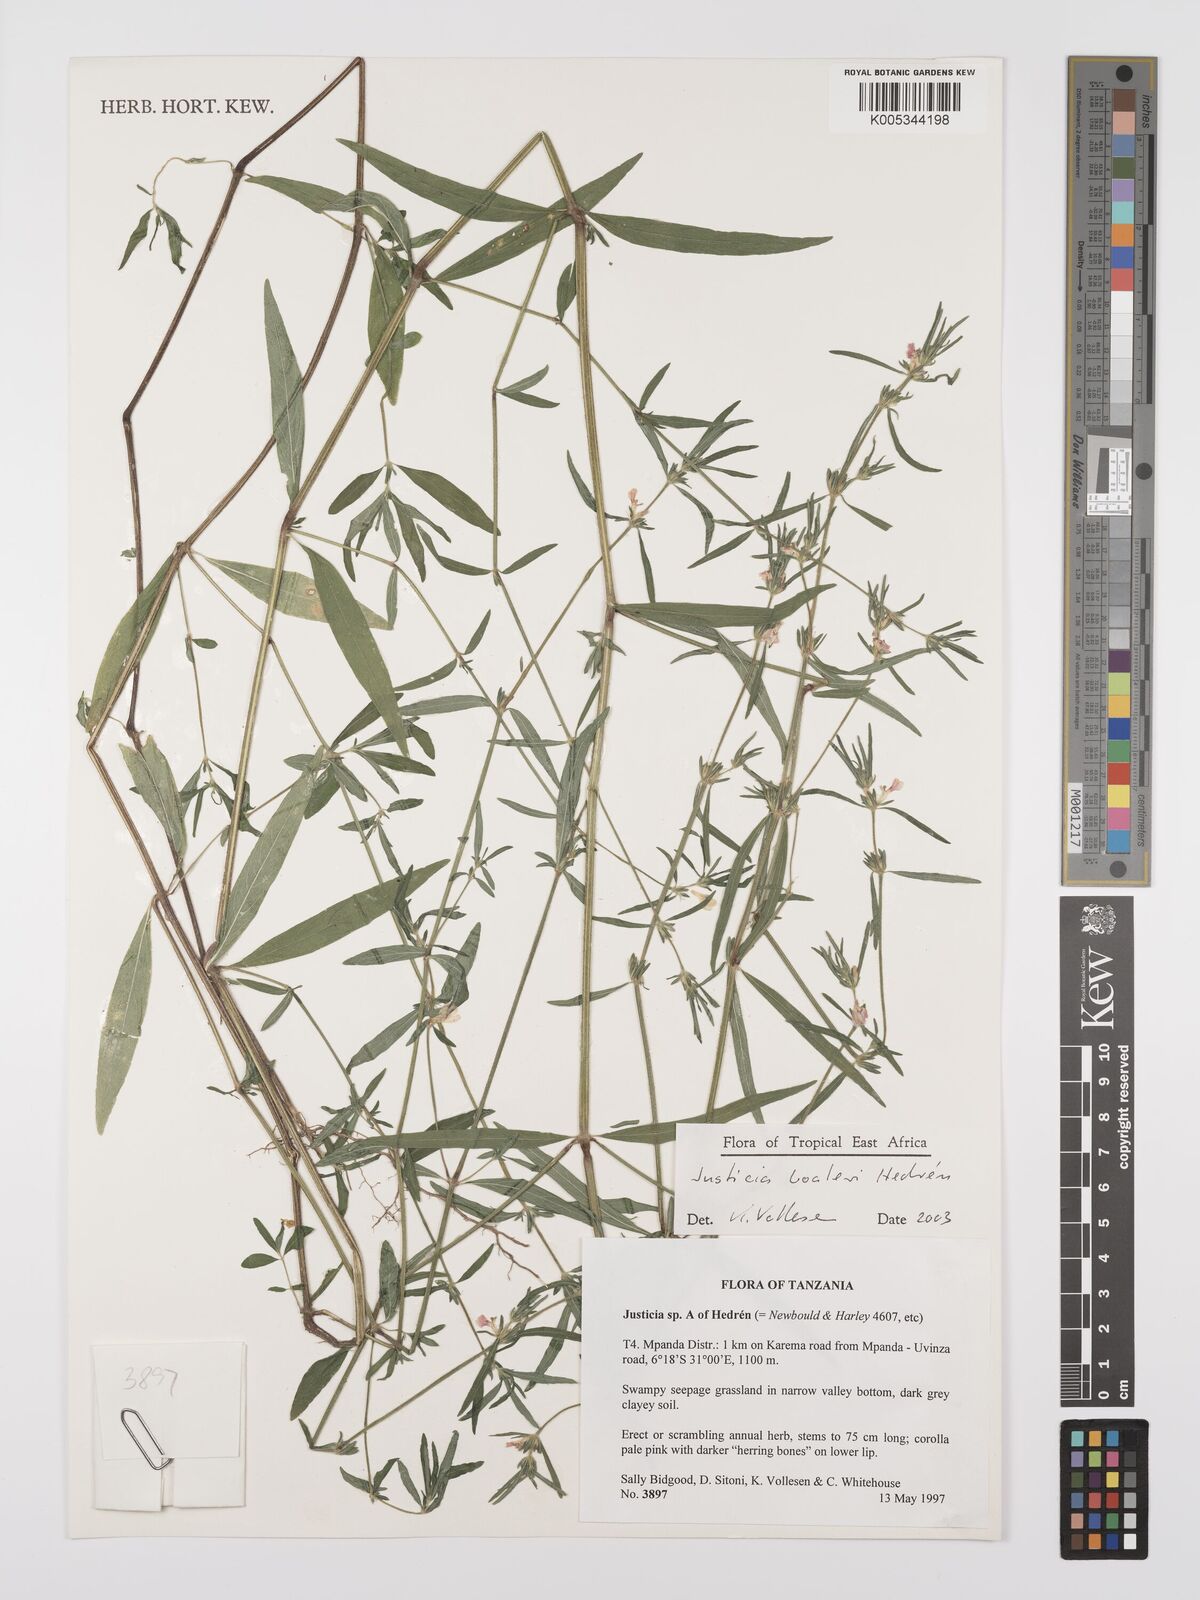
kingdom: Plantae
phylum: Tracheophyta
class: Magnoliopsida
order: Lamiales
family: Acanthaceae
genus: Justicia
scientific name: Justicia boaleri
